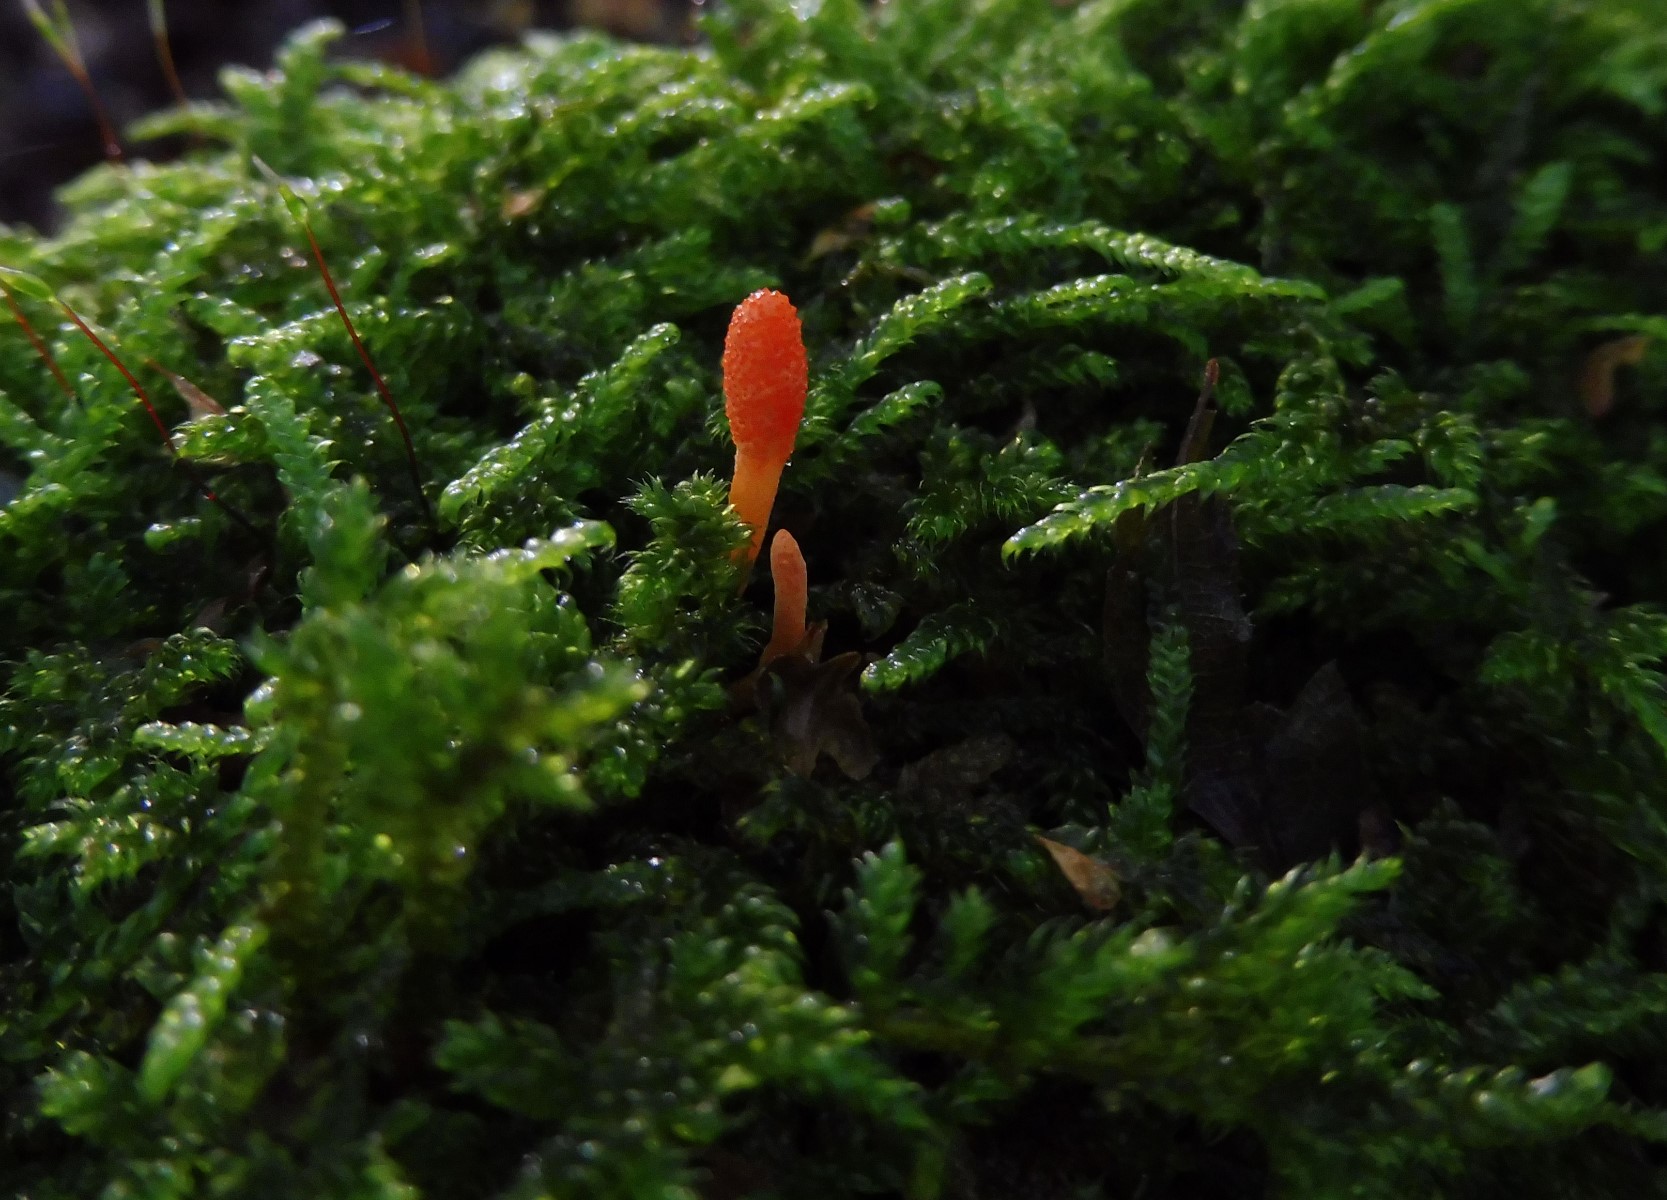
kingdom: Fungi
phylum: Ascomycota
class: Sordariomycetes
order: Hypocreales
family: Cordycipitaceae
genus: Cordyceps
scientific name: Cordyceps militaris
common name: puppe-snyltekølle
